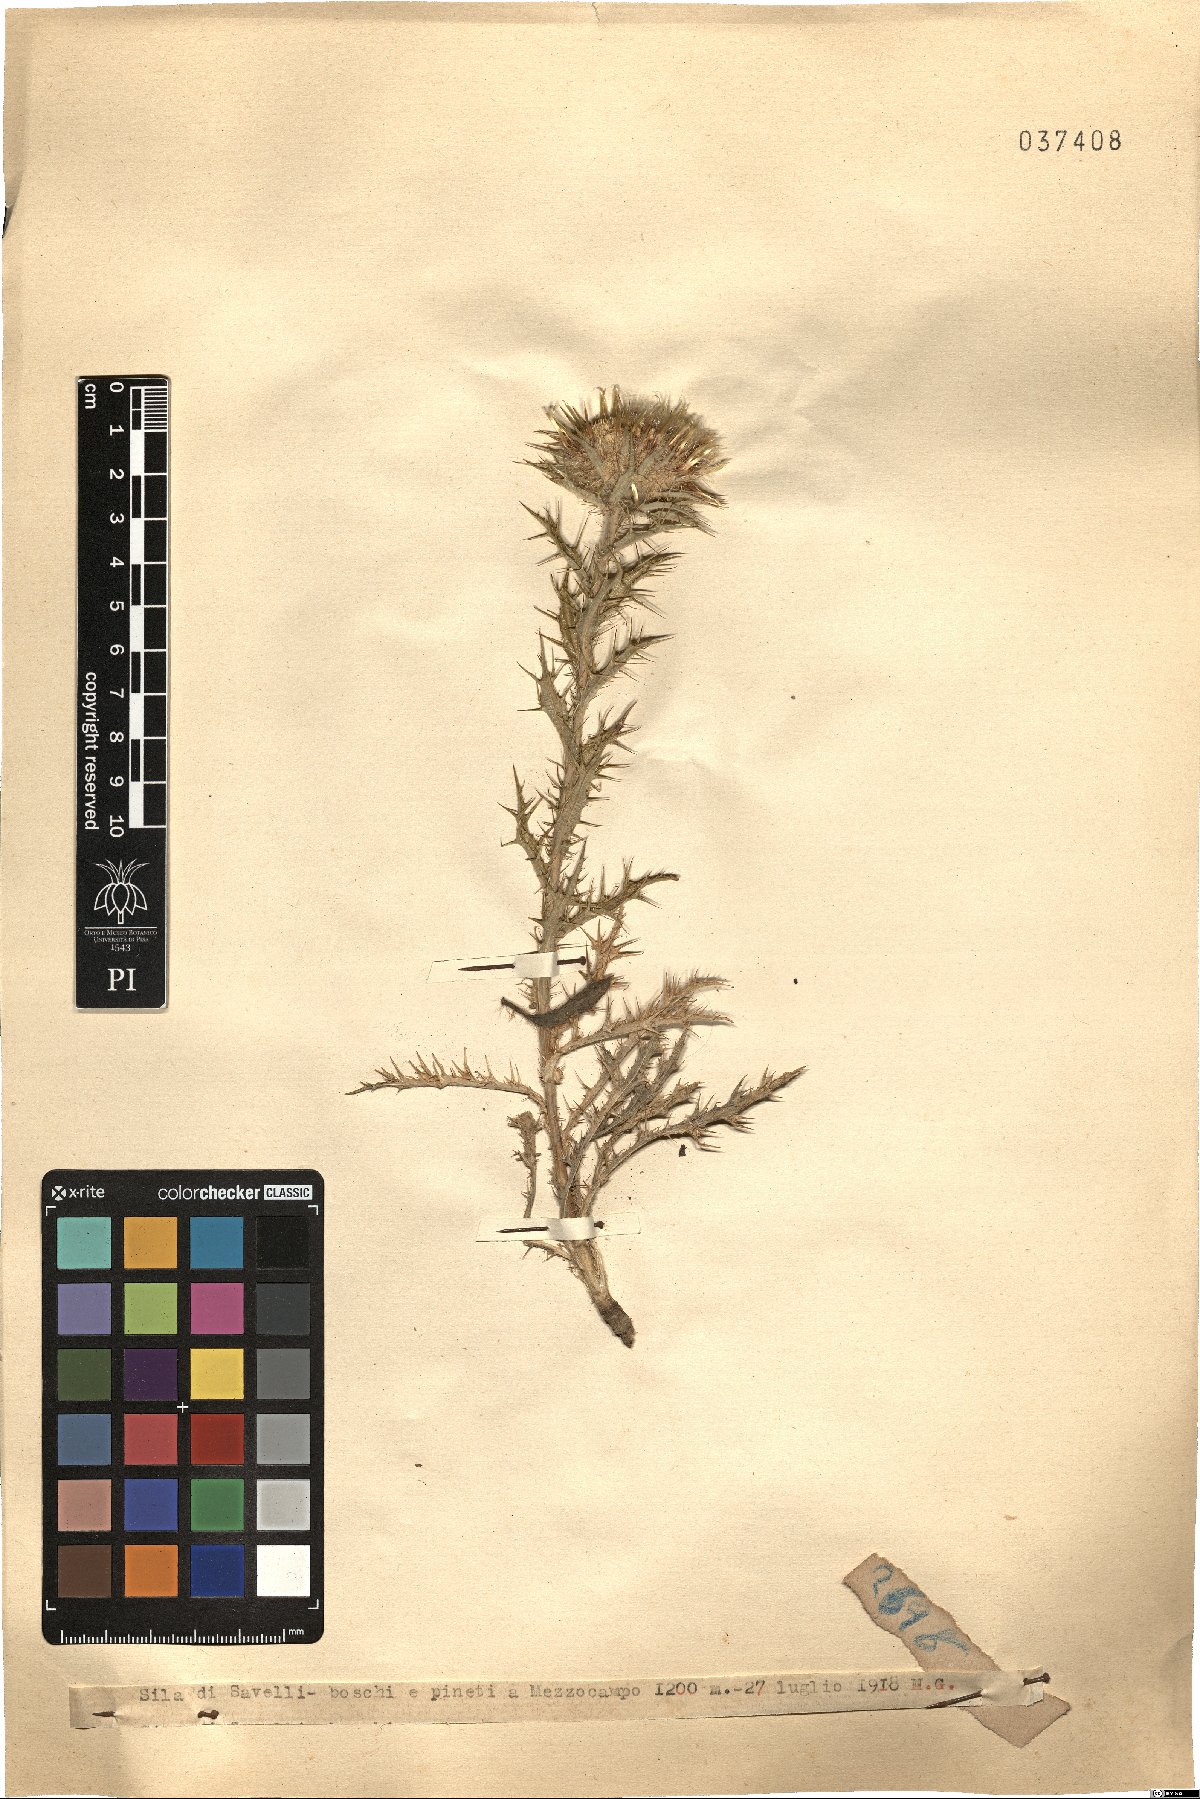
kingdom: Plantae
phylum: Tracheophyta
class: Magnoliopsida
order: Asterales
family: Asteraceae
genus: Carlina
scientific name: Carlina
